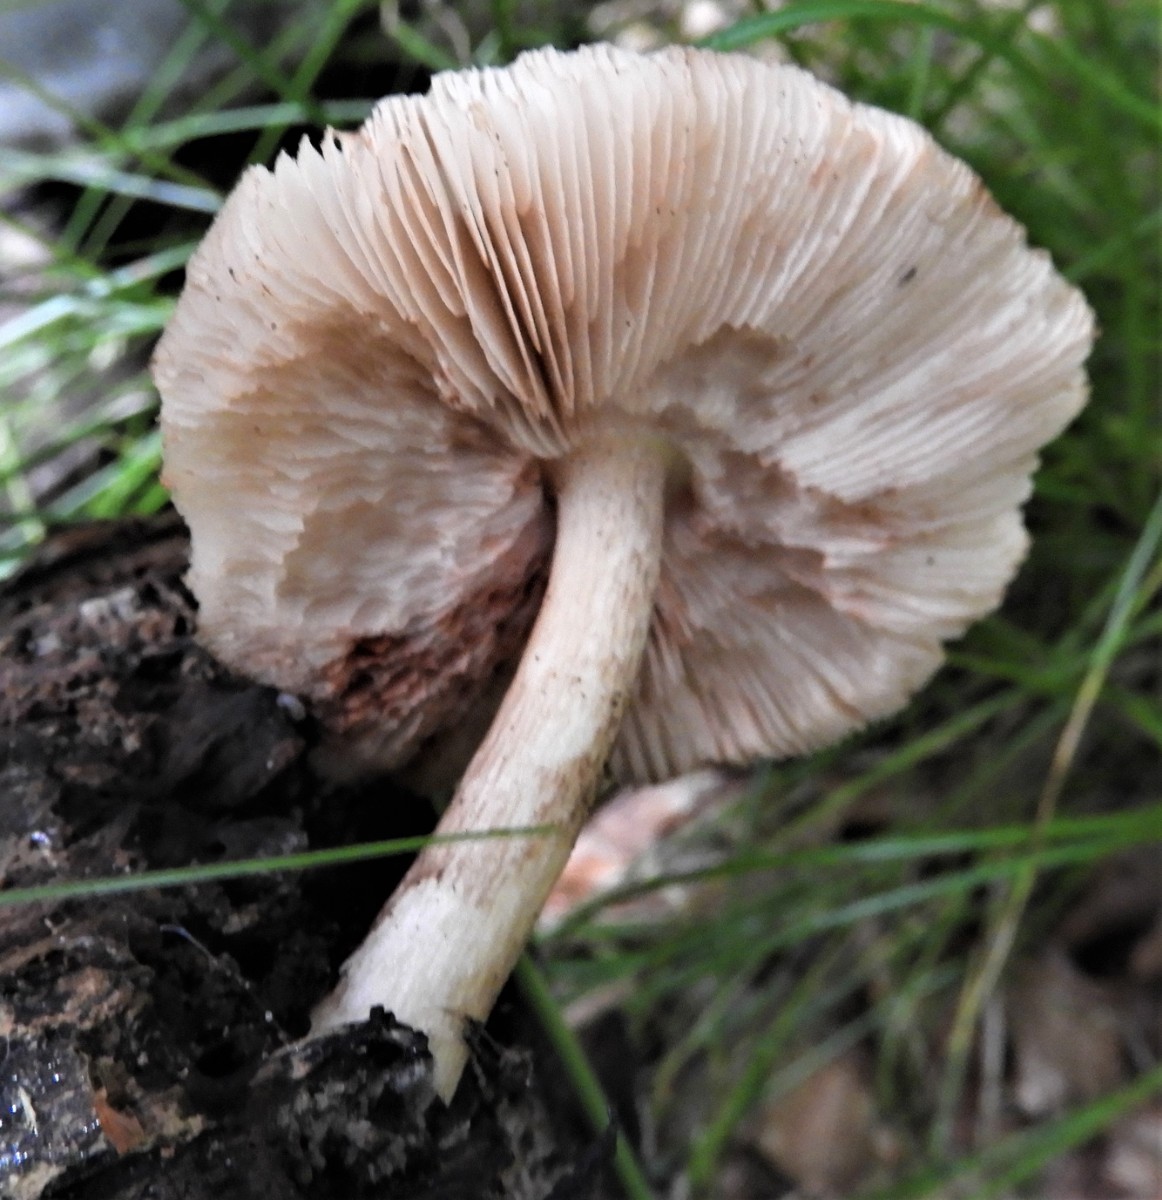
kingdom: Fungi
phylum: Basidiomycota
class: Agaricomycetes
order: Agaricales
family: Pluteaceae
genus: Pluteus
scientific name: Pluteus cervinus
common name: sodfarvet skærmhat
